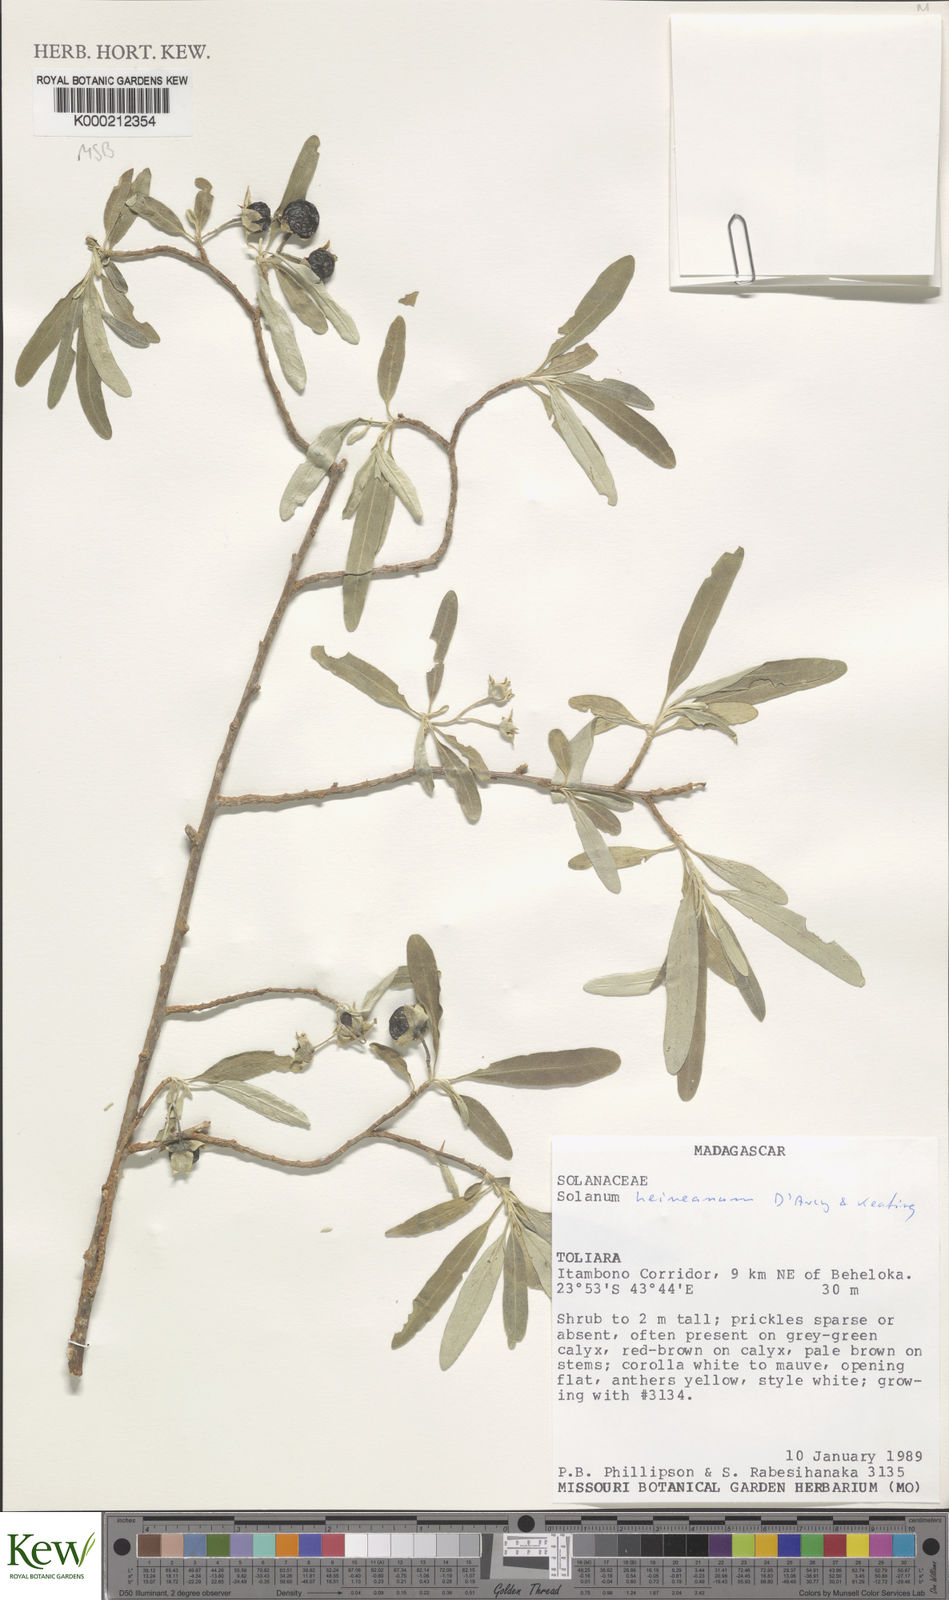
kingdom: Plantae
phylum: Tracheophyta
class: Magnoliopsida
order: Solanales
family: Solanaceae
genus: Solanum
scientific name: Solanum heinianum
